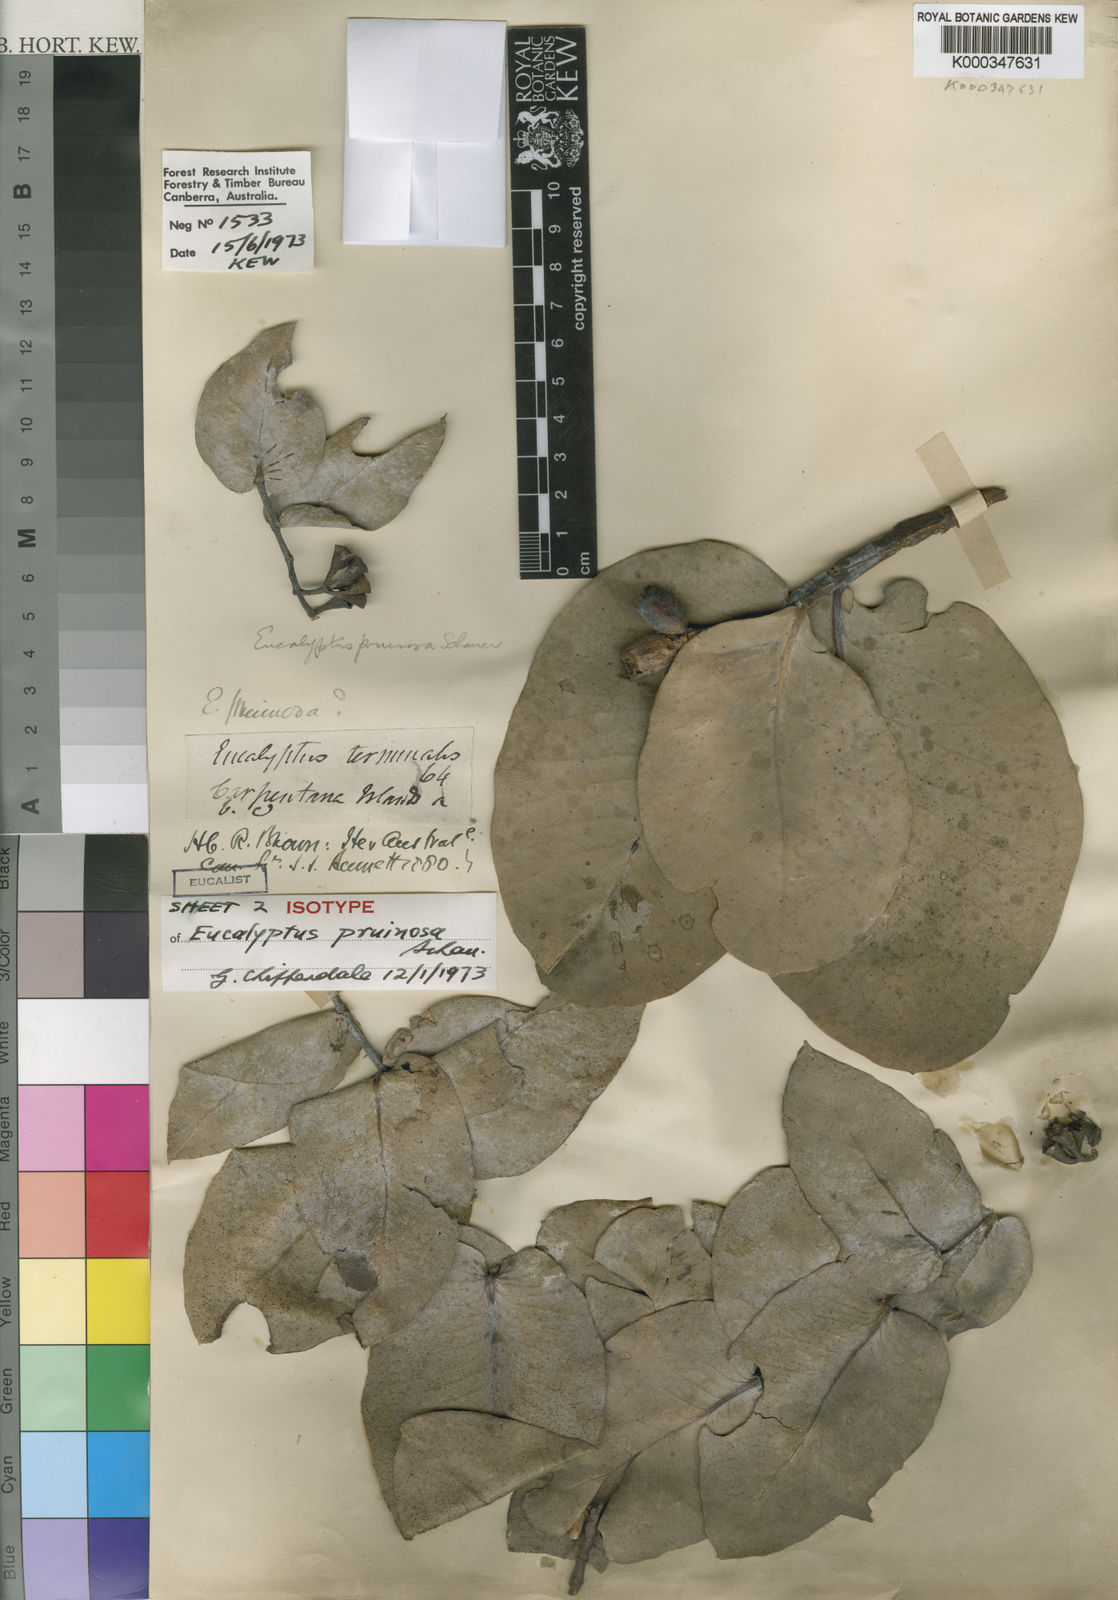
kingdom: Plantae
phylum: Tracheophyta
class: Magnoliopsida
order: Myrtales
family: Myrtaceae
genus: Eucalyptus
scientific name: Eucalyptus pruinosa
